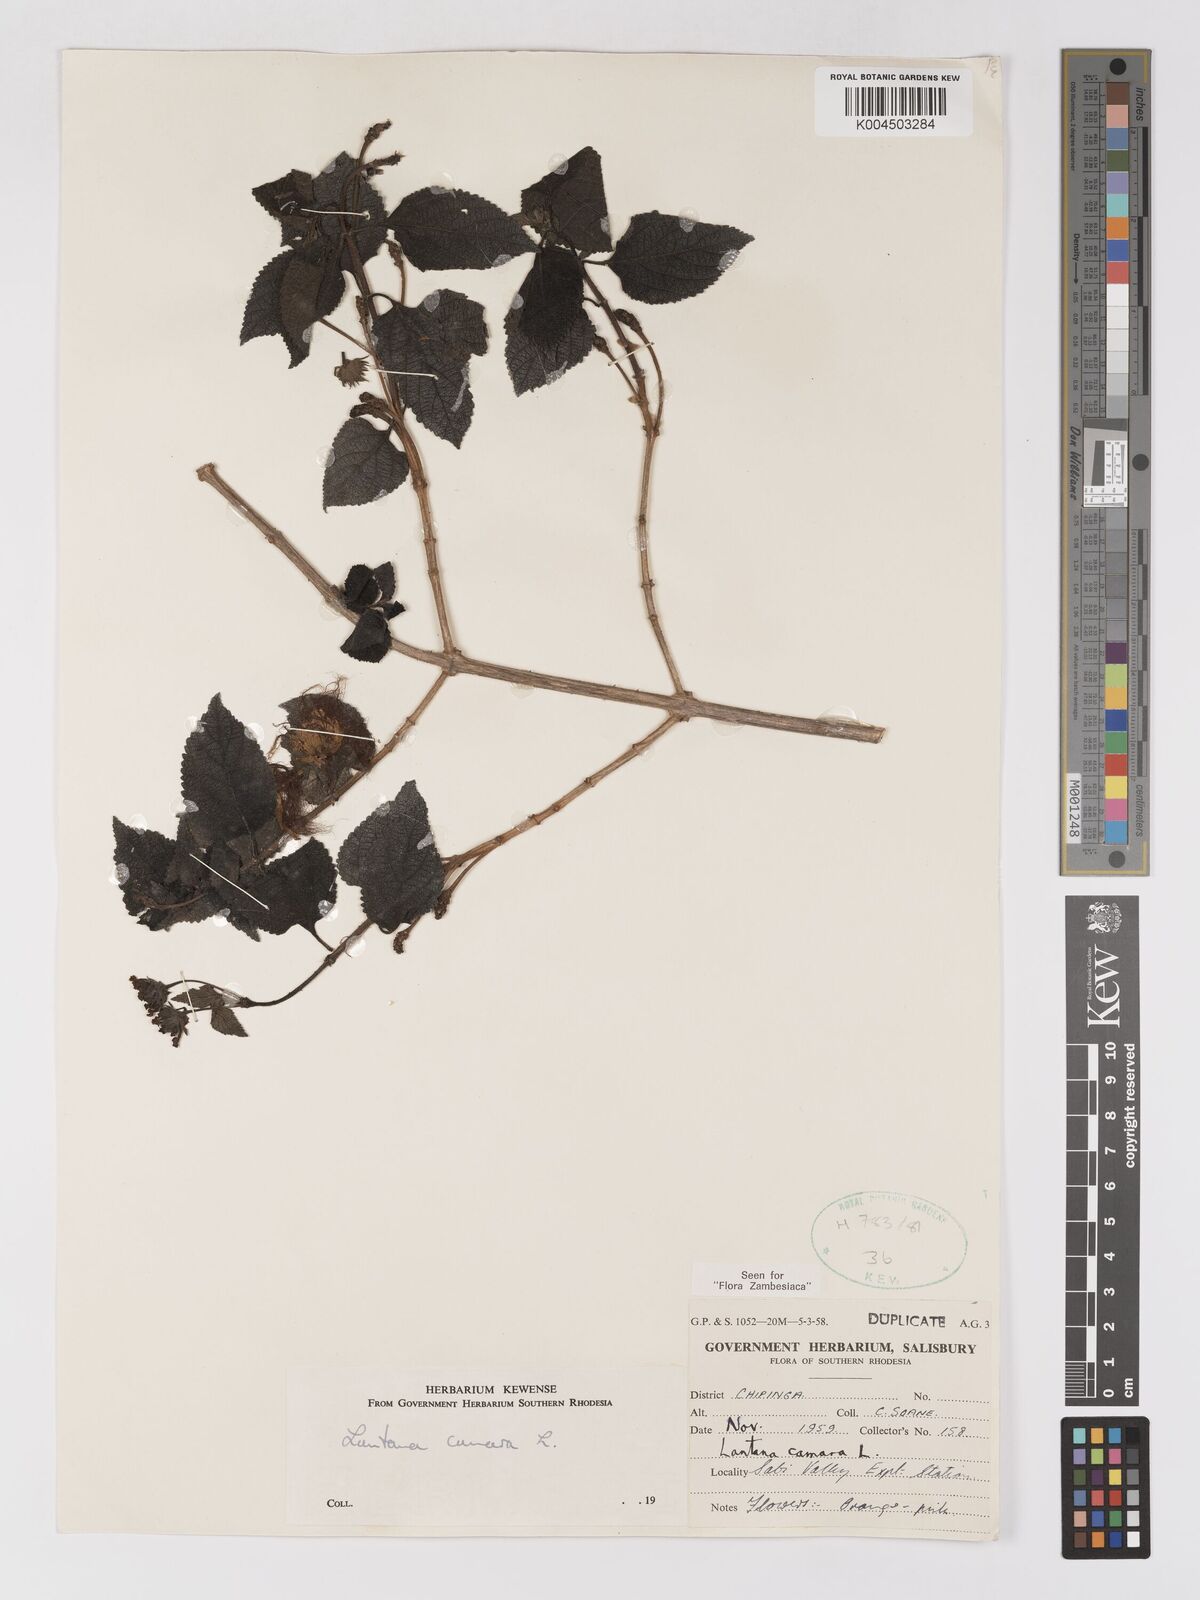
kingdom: Plantae
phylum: Tracheophyta
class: Magnoliopsida
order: Lamiales
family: Verbenaceae
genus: Lantana
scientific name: Lantana camara
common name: Lantana
